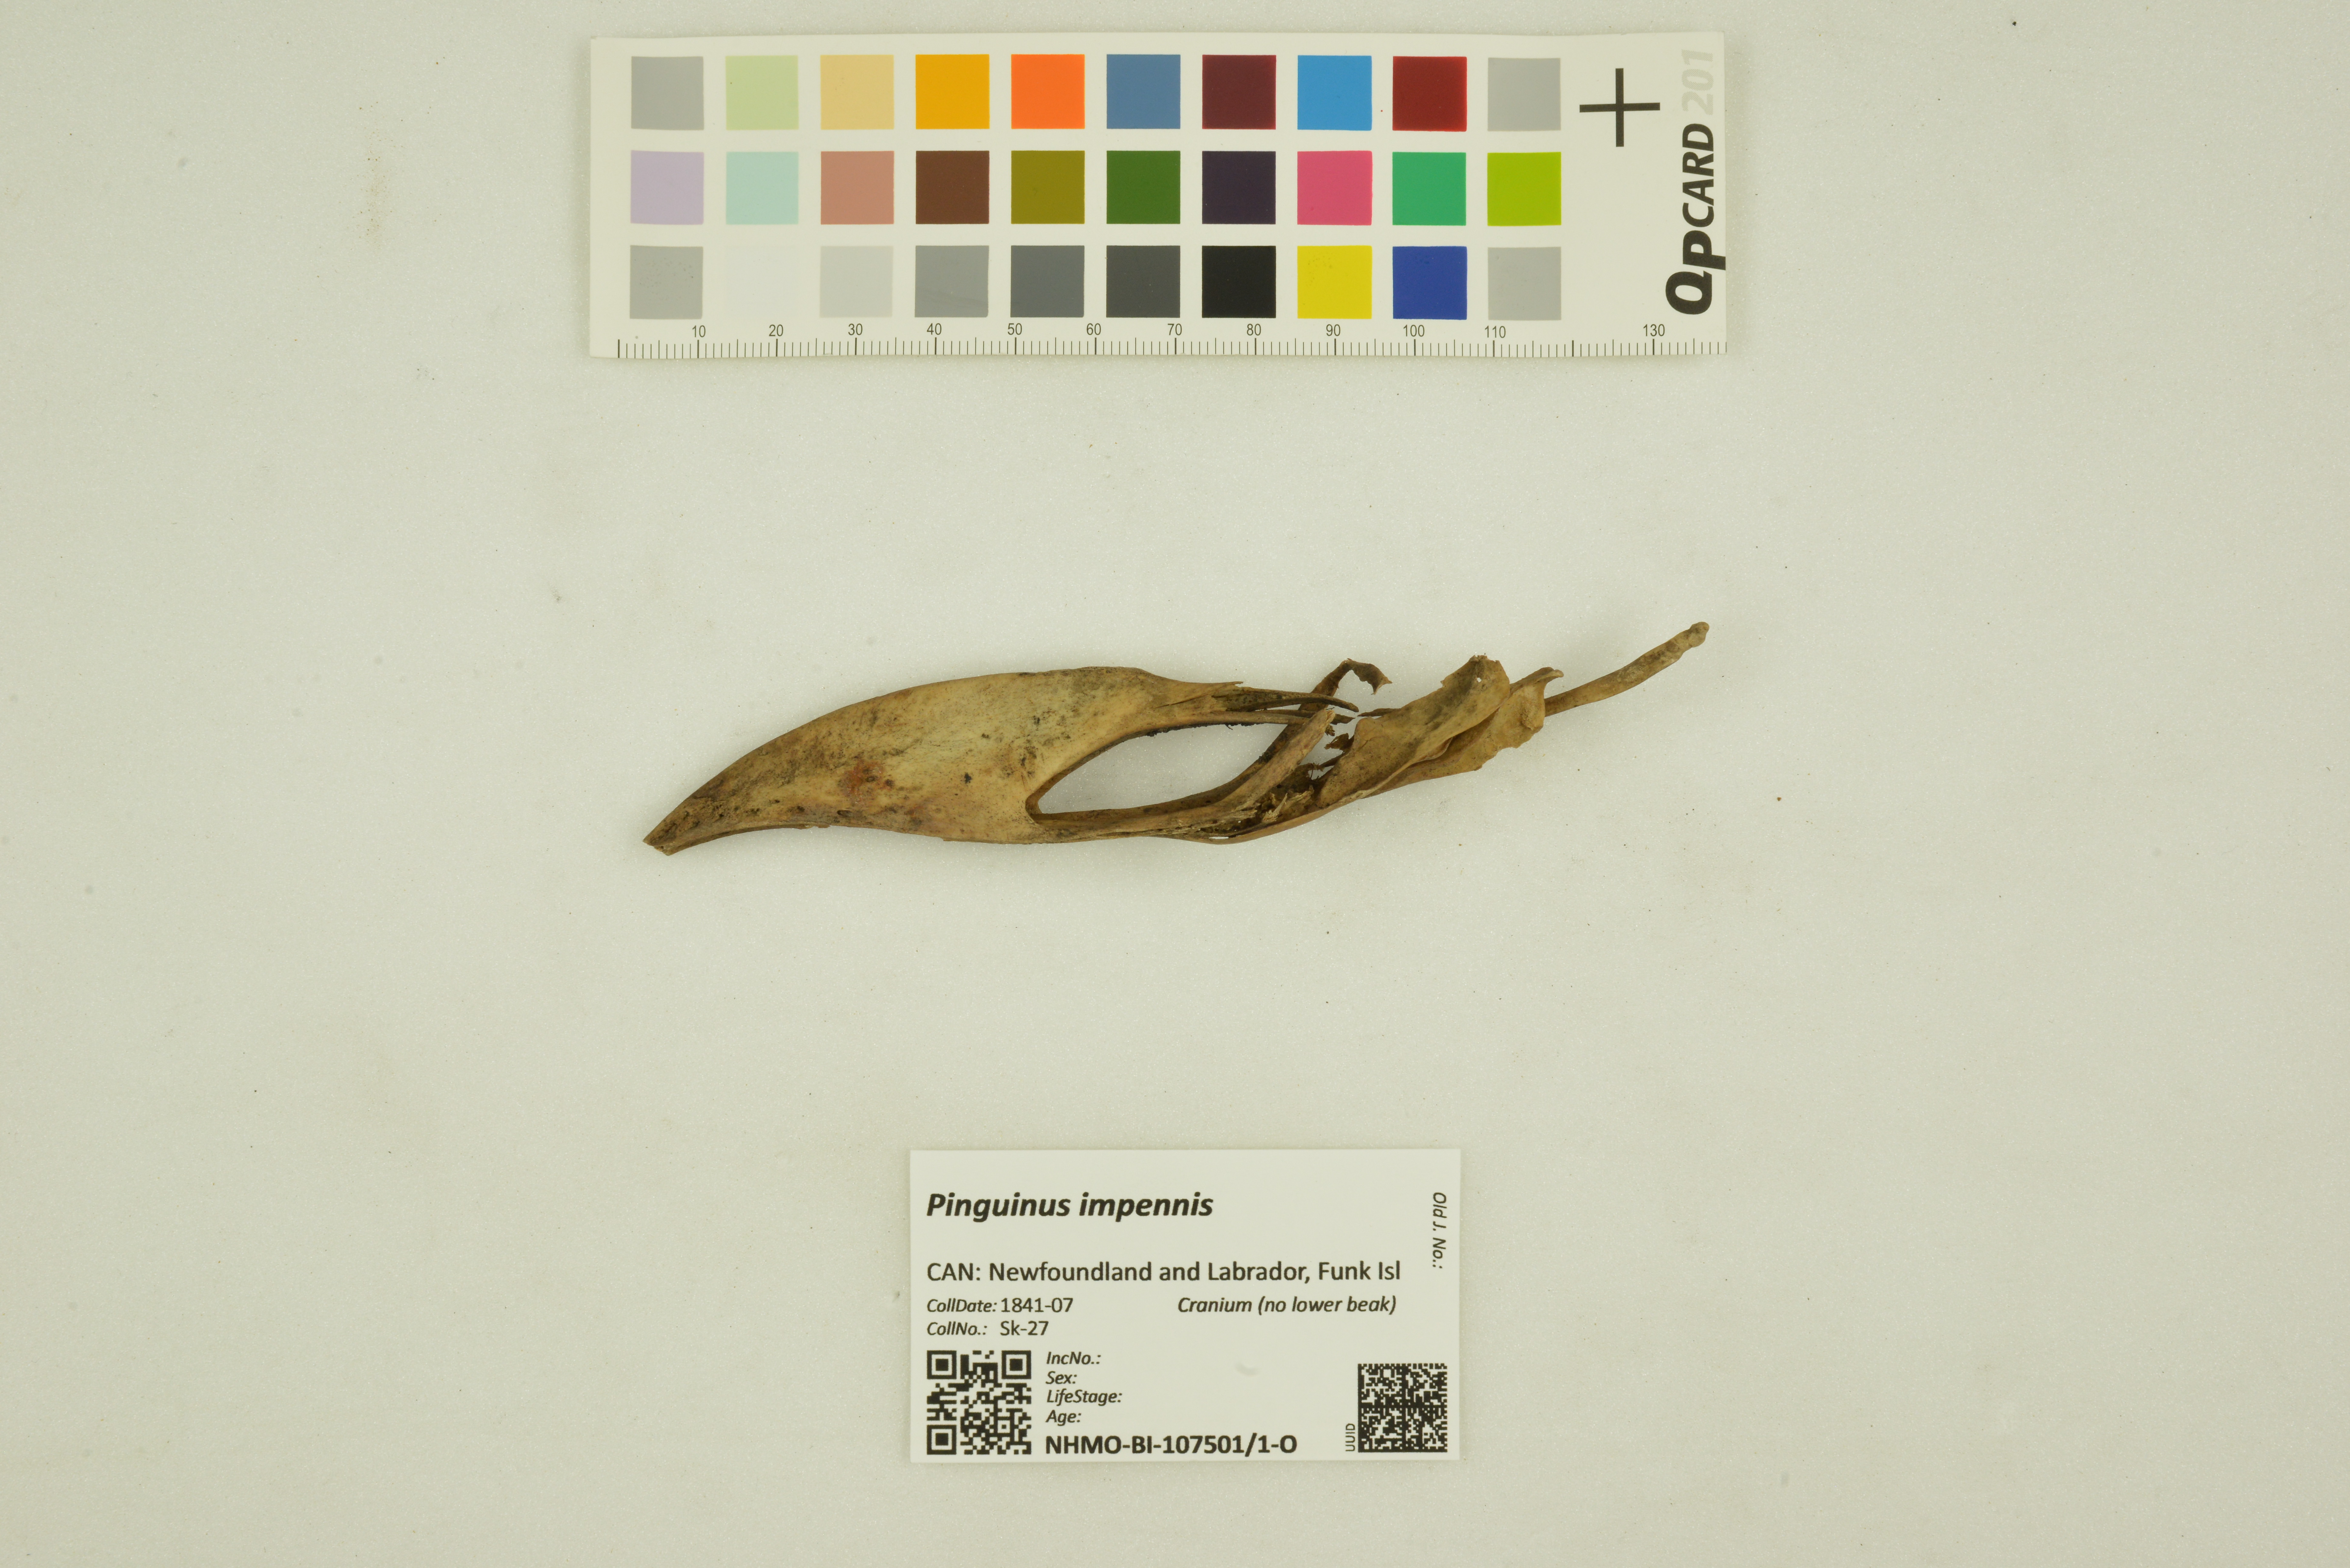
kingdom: Animalia
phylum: Chordata
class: Aves
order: Charadriiformes
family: Alcidae
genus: Pinguinus
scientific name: Pinguinus impennis
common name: Great auk
